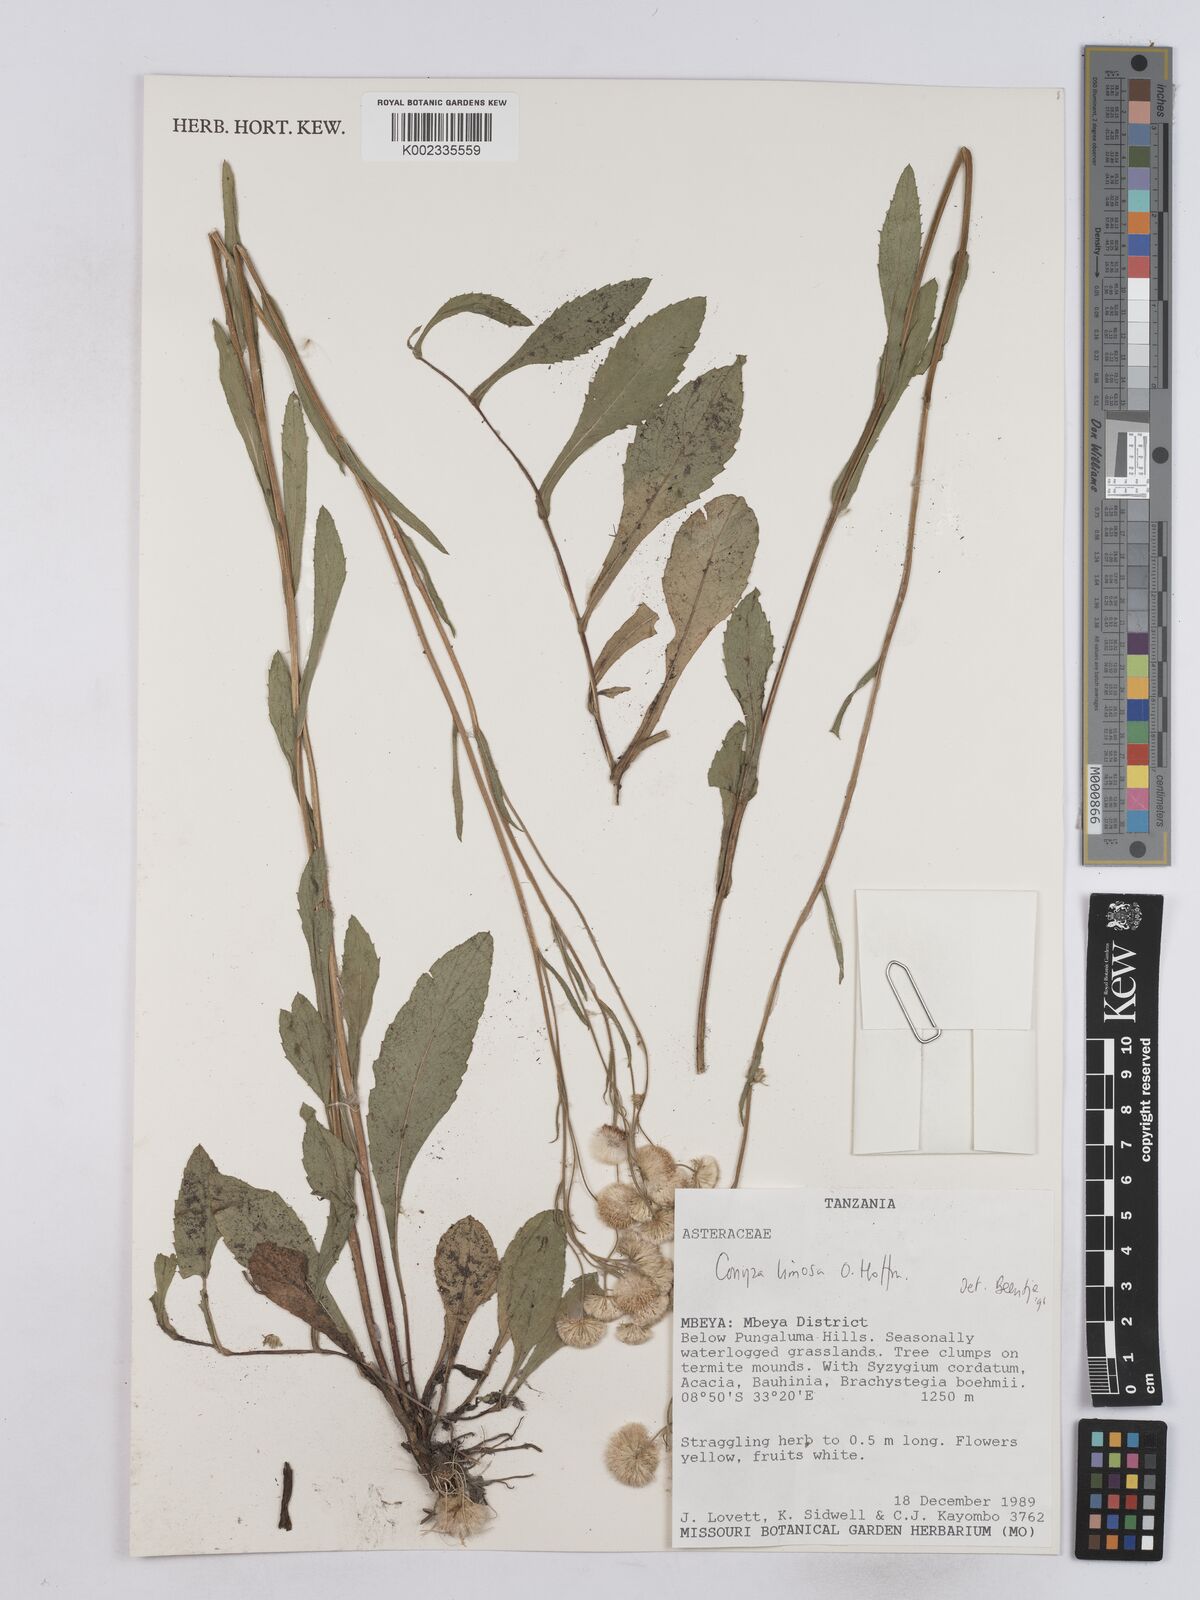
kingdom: Plantae
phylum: Tracheophyta
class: Magnoliopsida
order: Asterales
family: Asteraceae
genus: Conyza
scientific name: Conyza limosa
